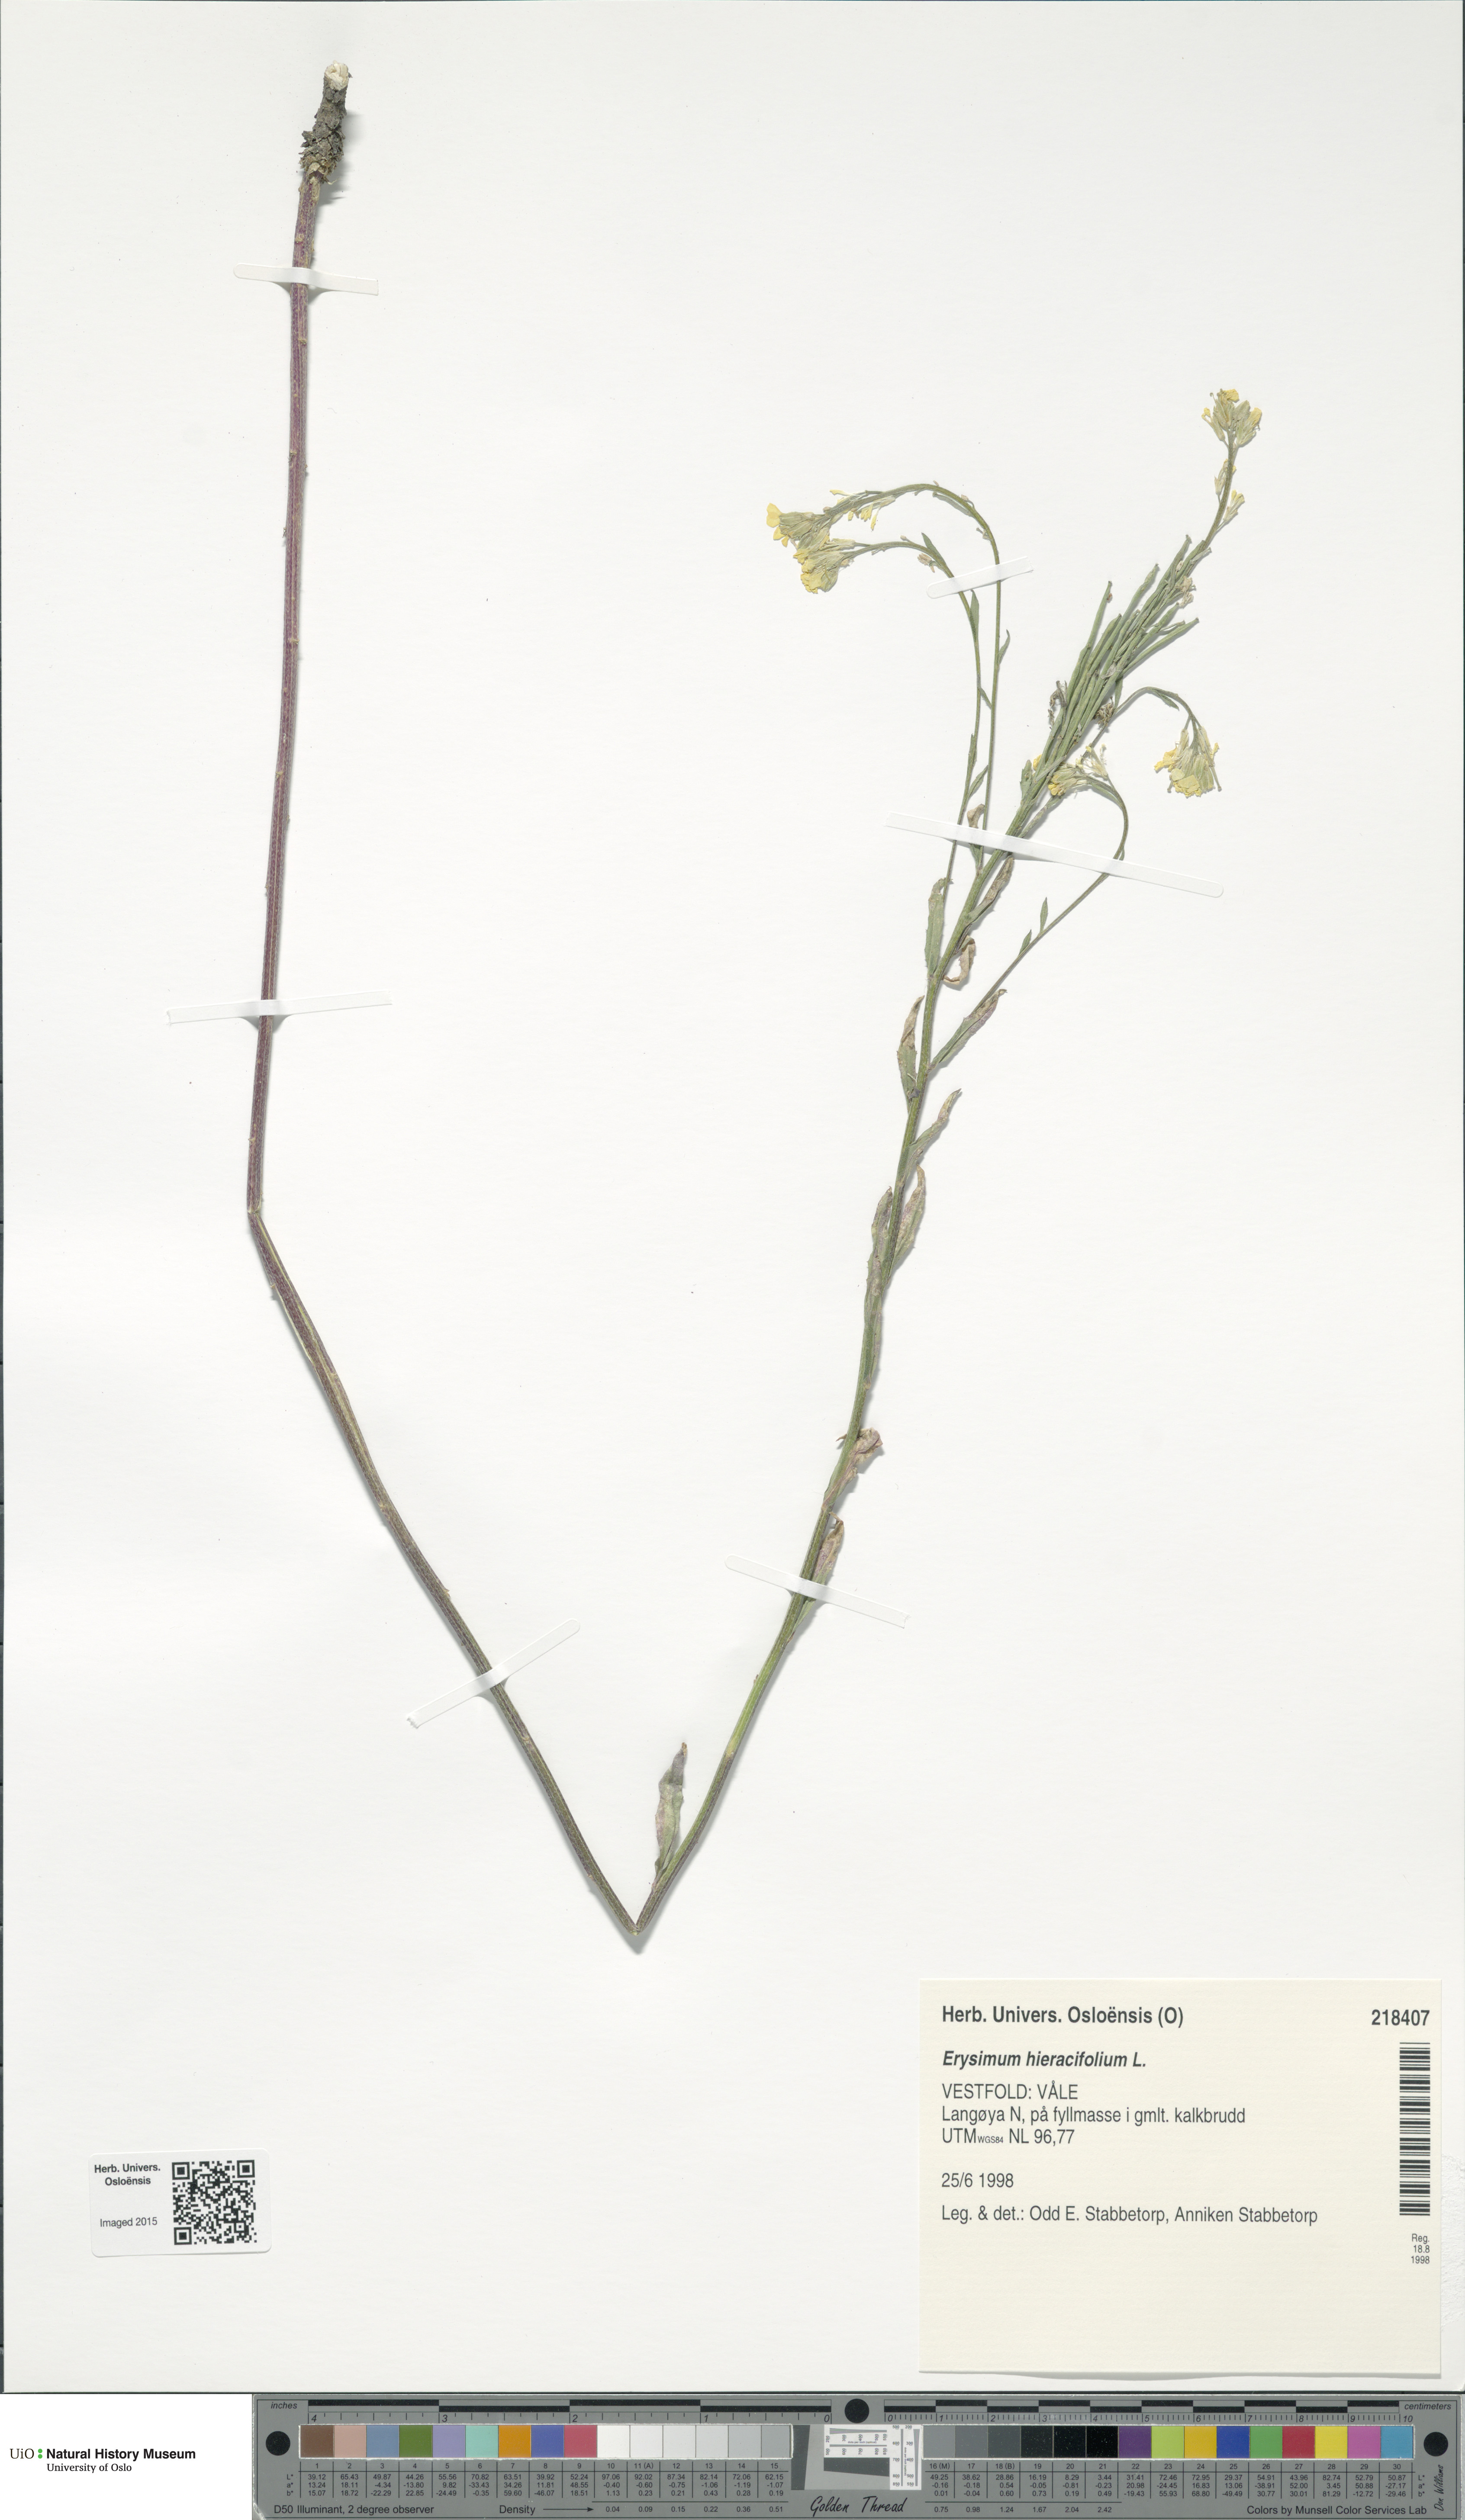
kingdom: Plantae
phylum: Tracheophyta
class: Magnoliopsida
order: Brassicales
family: Brassicaceae
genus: Erysimum
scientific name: Erysimum hieraciifolium
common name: European wallflower
